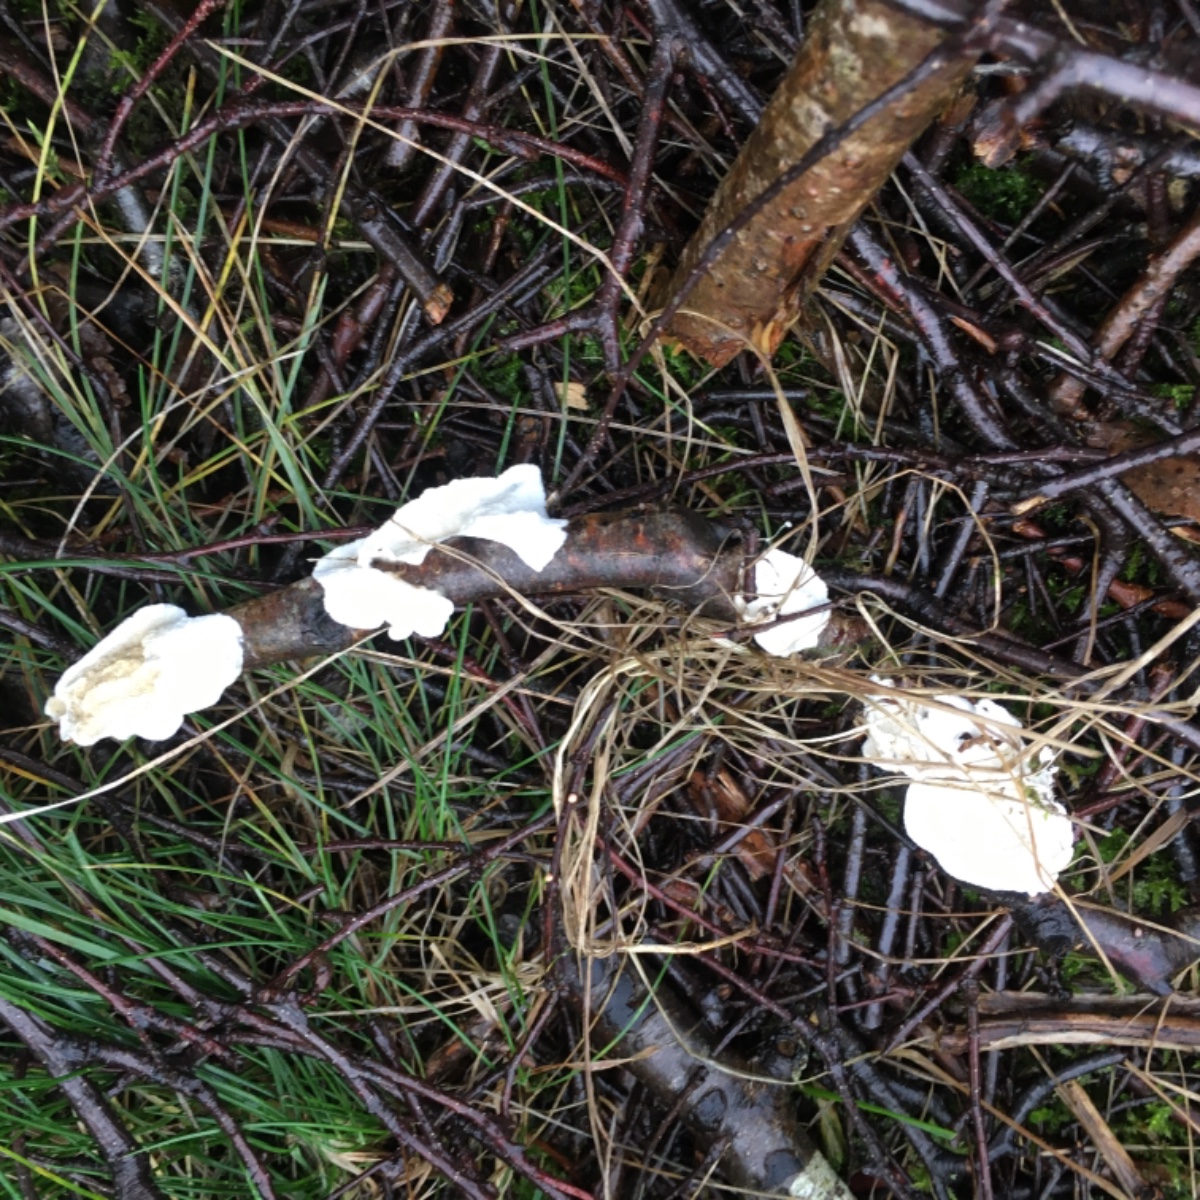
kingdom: Fungi
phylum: Basidiomycota
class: Agaricomycetes
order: Polyporales
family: Irpicaceae
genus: Byssomerulius
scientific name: Byssomerulius corium
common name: læder-åresvamp
